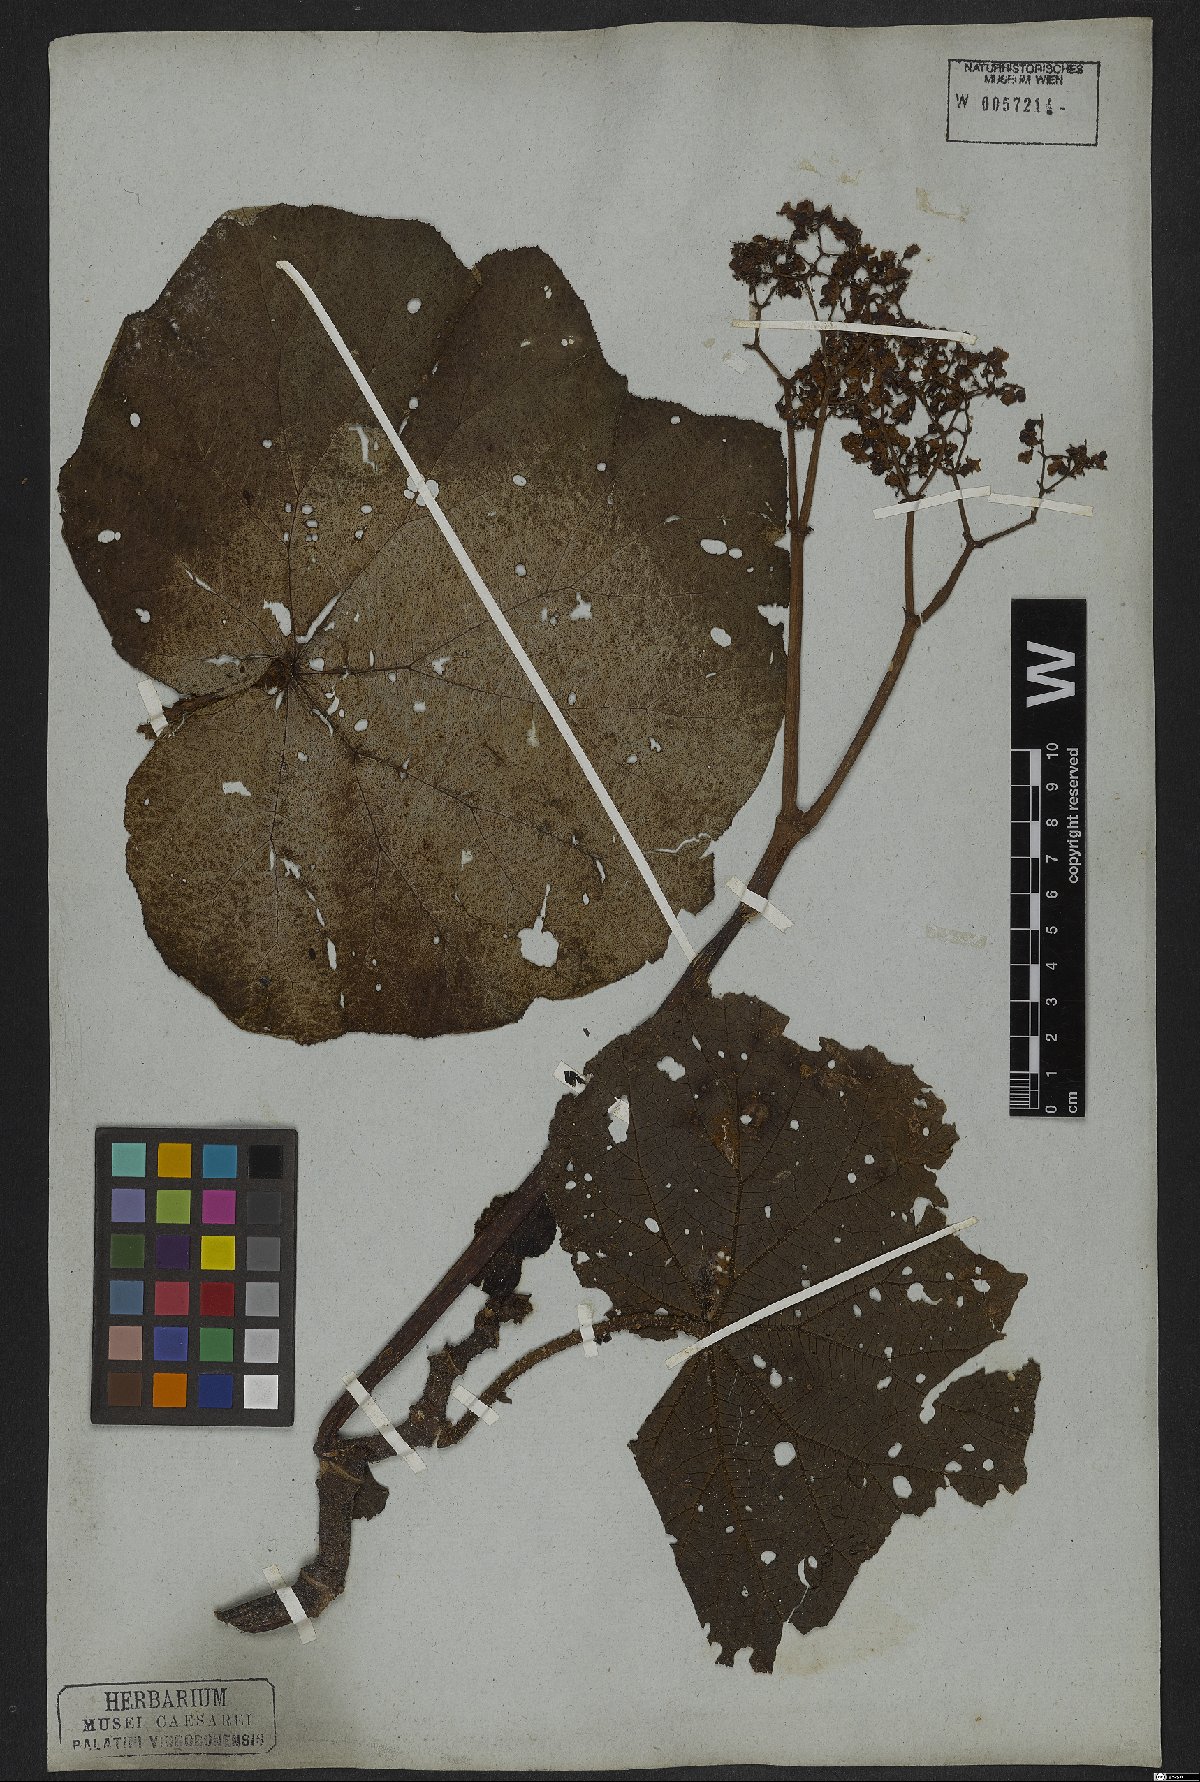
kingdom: Plantae
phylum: Tracheophyta
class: Magnoliopsida
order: Cucurbitales
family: Begoniaceae
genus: Begonia
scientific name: Begonia paleata
